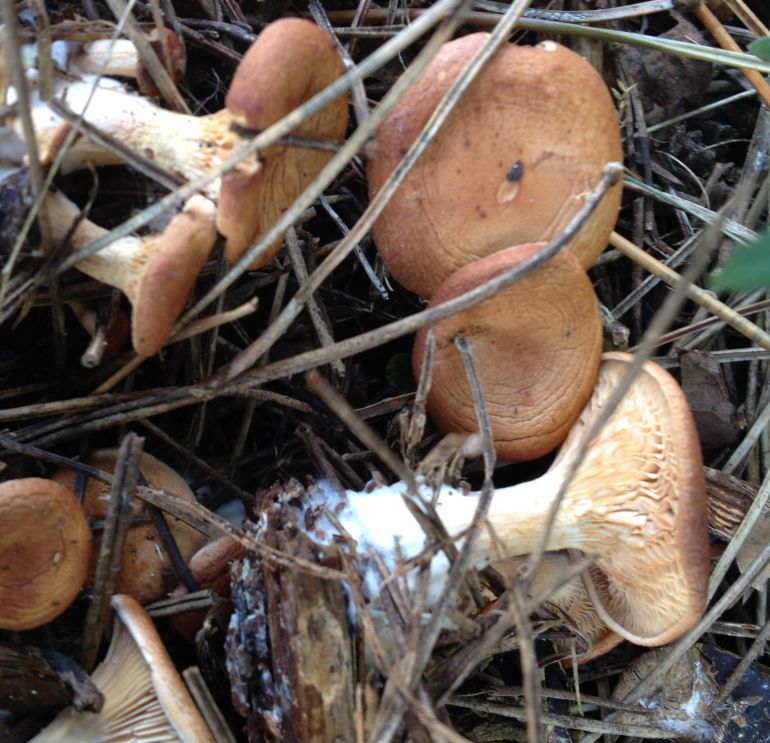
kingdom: Fungi
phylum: Basidiomycota
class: Agaricomycetes
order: Agaricales
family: Tricholomataceae
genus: Paralepista
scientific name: Paralepista flaccida
